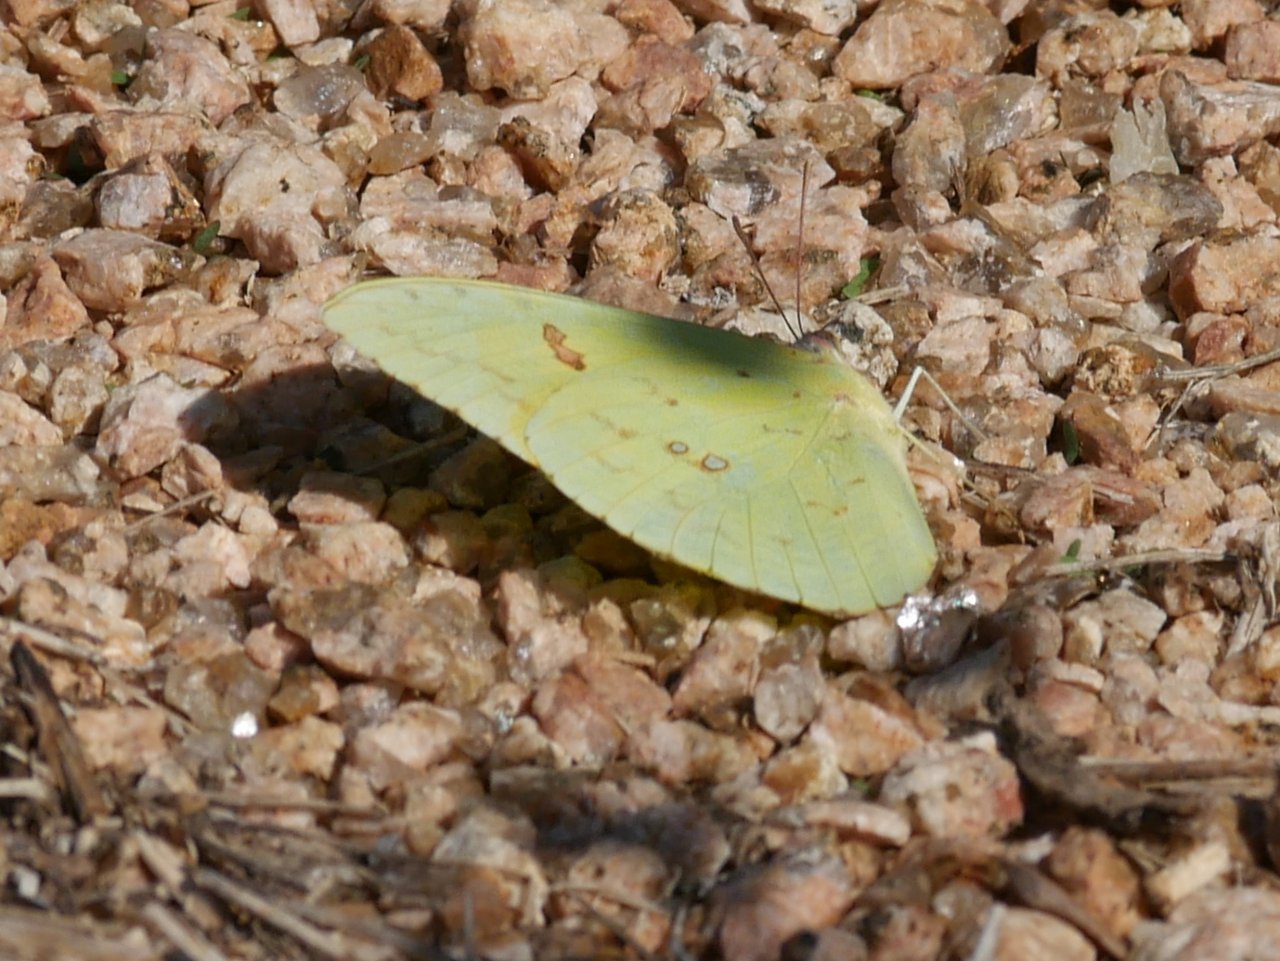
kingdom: Animalia
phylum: Arthropoda
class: Insecta
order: Lepidoptera
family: Pieridae
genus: Phoebis
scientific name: Phoebis sennae
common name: Cloudless Sulphur
